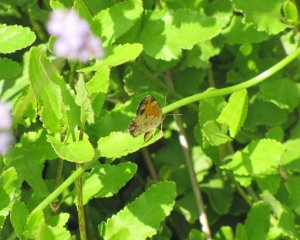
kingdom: Animalia
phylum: Arthropoda
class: Insecta
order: Lepidoptera
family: Nymphalidae
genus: Phyciodes
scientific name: Phyciodes tharos
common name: Pearl Crescent
